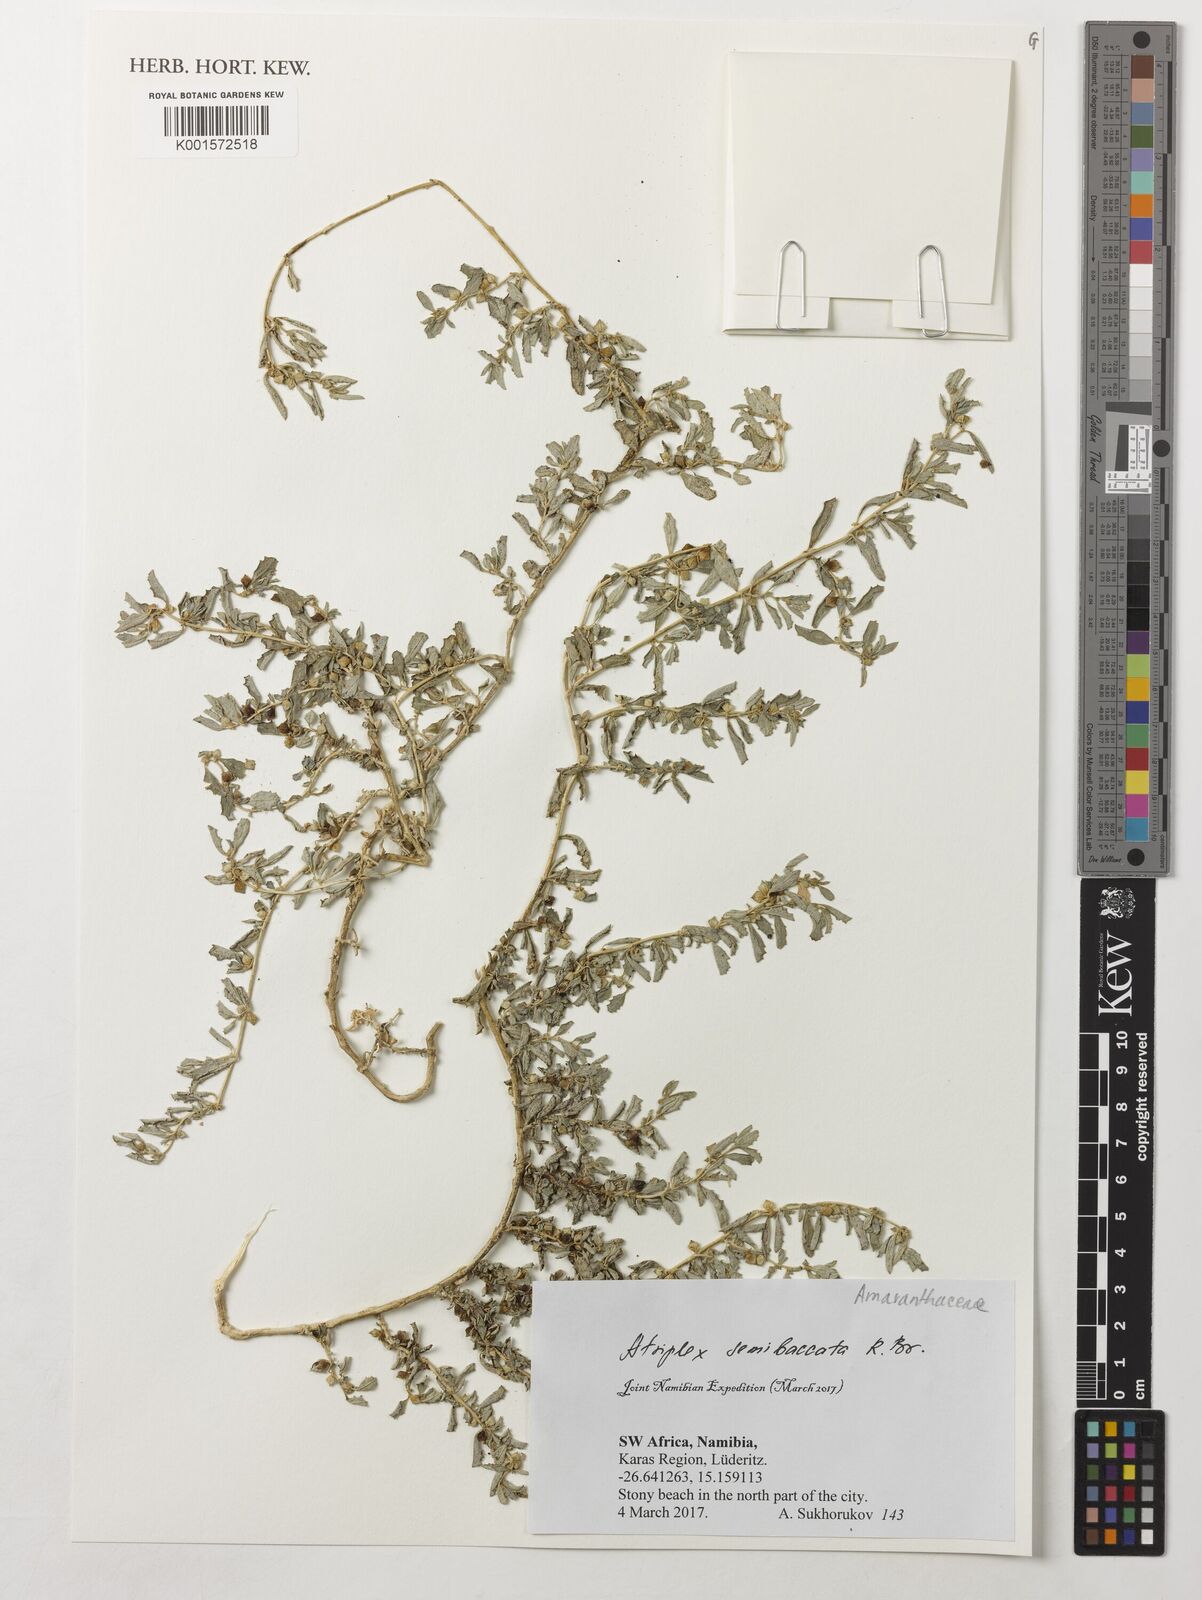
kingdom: Plantae
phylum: Tracheophyta
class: Magnoliopsida
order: Caryophyllales
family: Amaranthaceae
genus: Atriplex
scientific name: Atriplex semibaccata
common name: Australian saltbush
